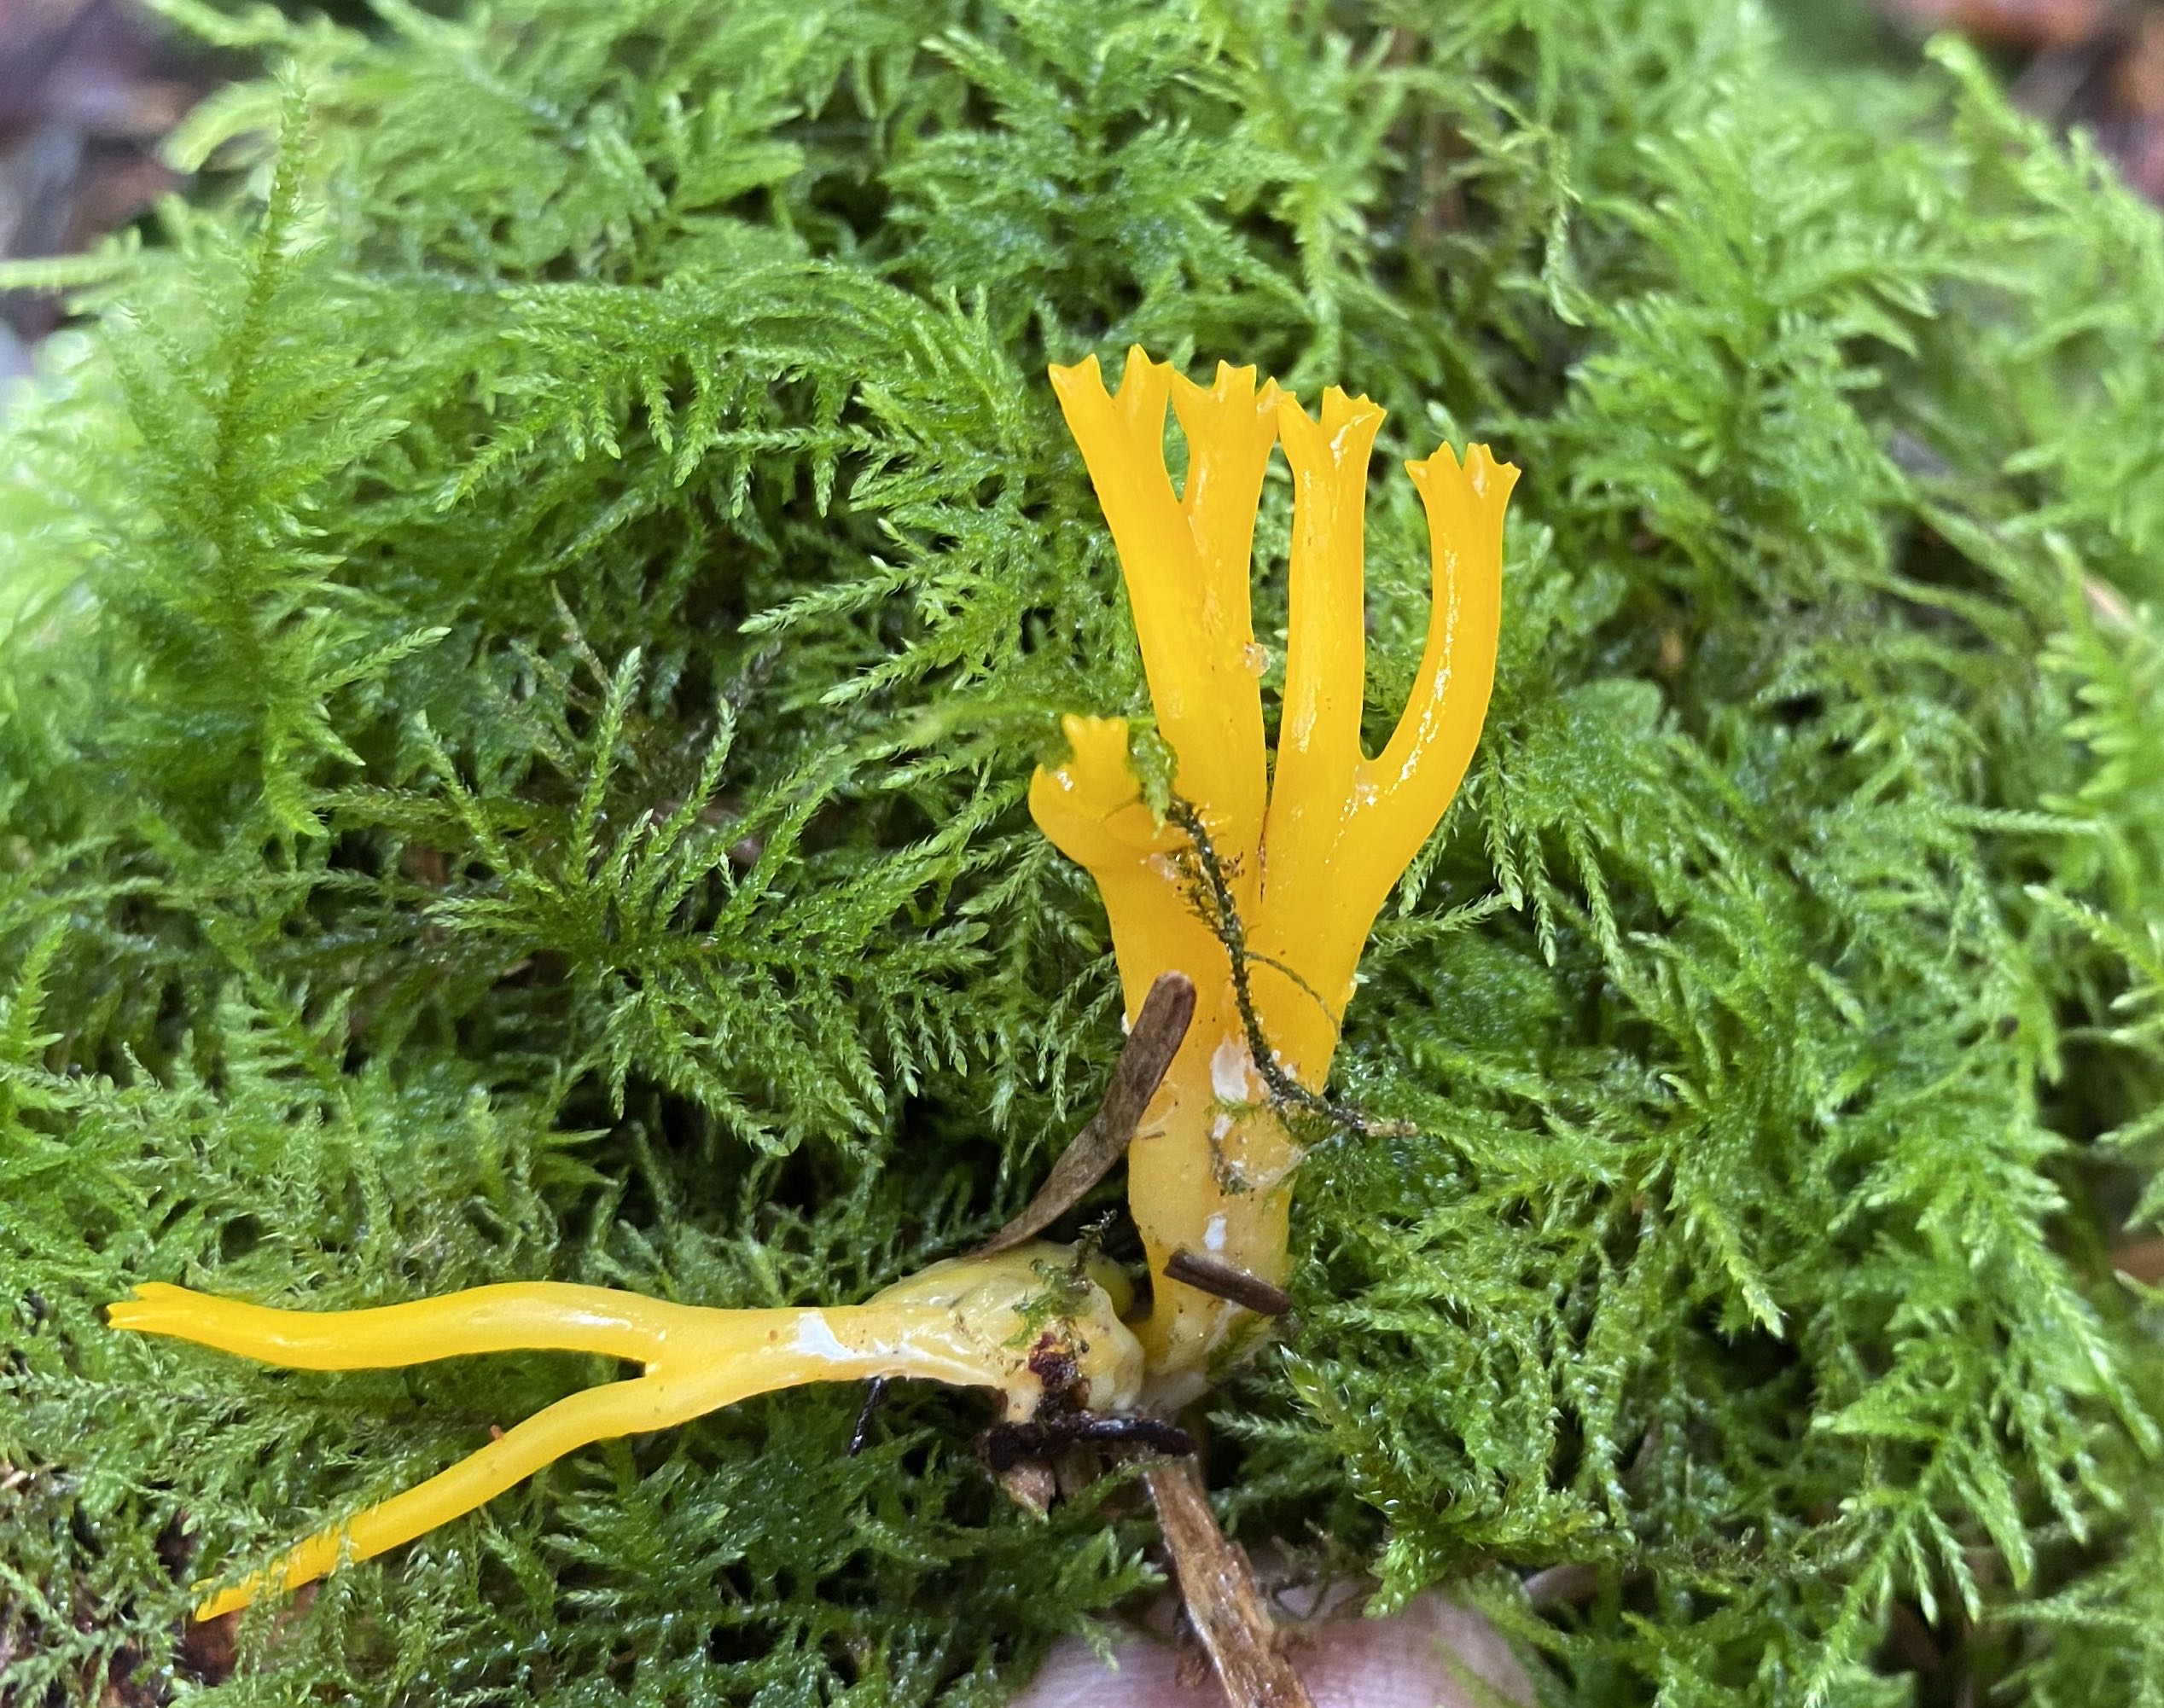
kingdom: Fungi
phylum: Basidiomycota
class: Dacrymycetes
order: Dacrymycetales
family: Dacrymycetaceae
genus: Calocera
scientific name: Calocera viscosa
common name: almindelig guldgaffel
